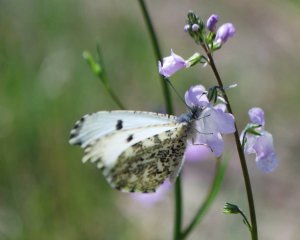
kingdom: Animalia
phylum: Arthropoda
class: Insecta
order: Lepidoptera
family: Pieridae
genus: Anthocharis
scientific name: Anthocharis midea
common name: Falcate Orangetip
